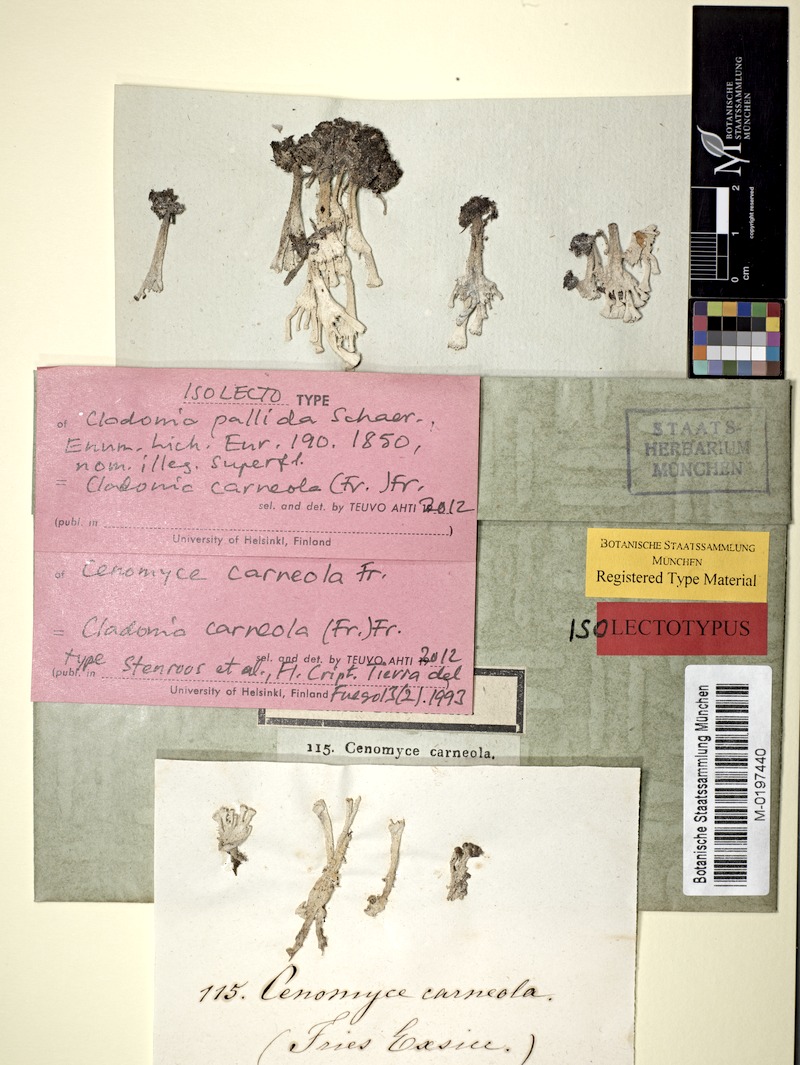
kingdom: Fungi
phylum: Ascomycota
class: Lecanoromycetes
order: Lecanorales
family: Cladoniaceae
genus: Cladonia
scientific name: Cladonia carneola
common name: Crowned pixie-cup
